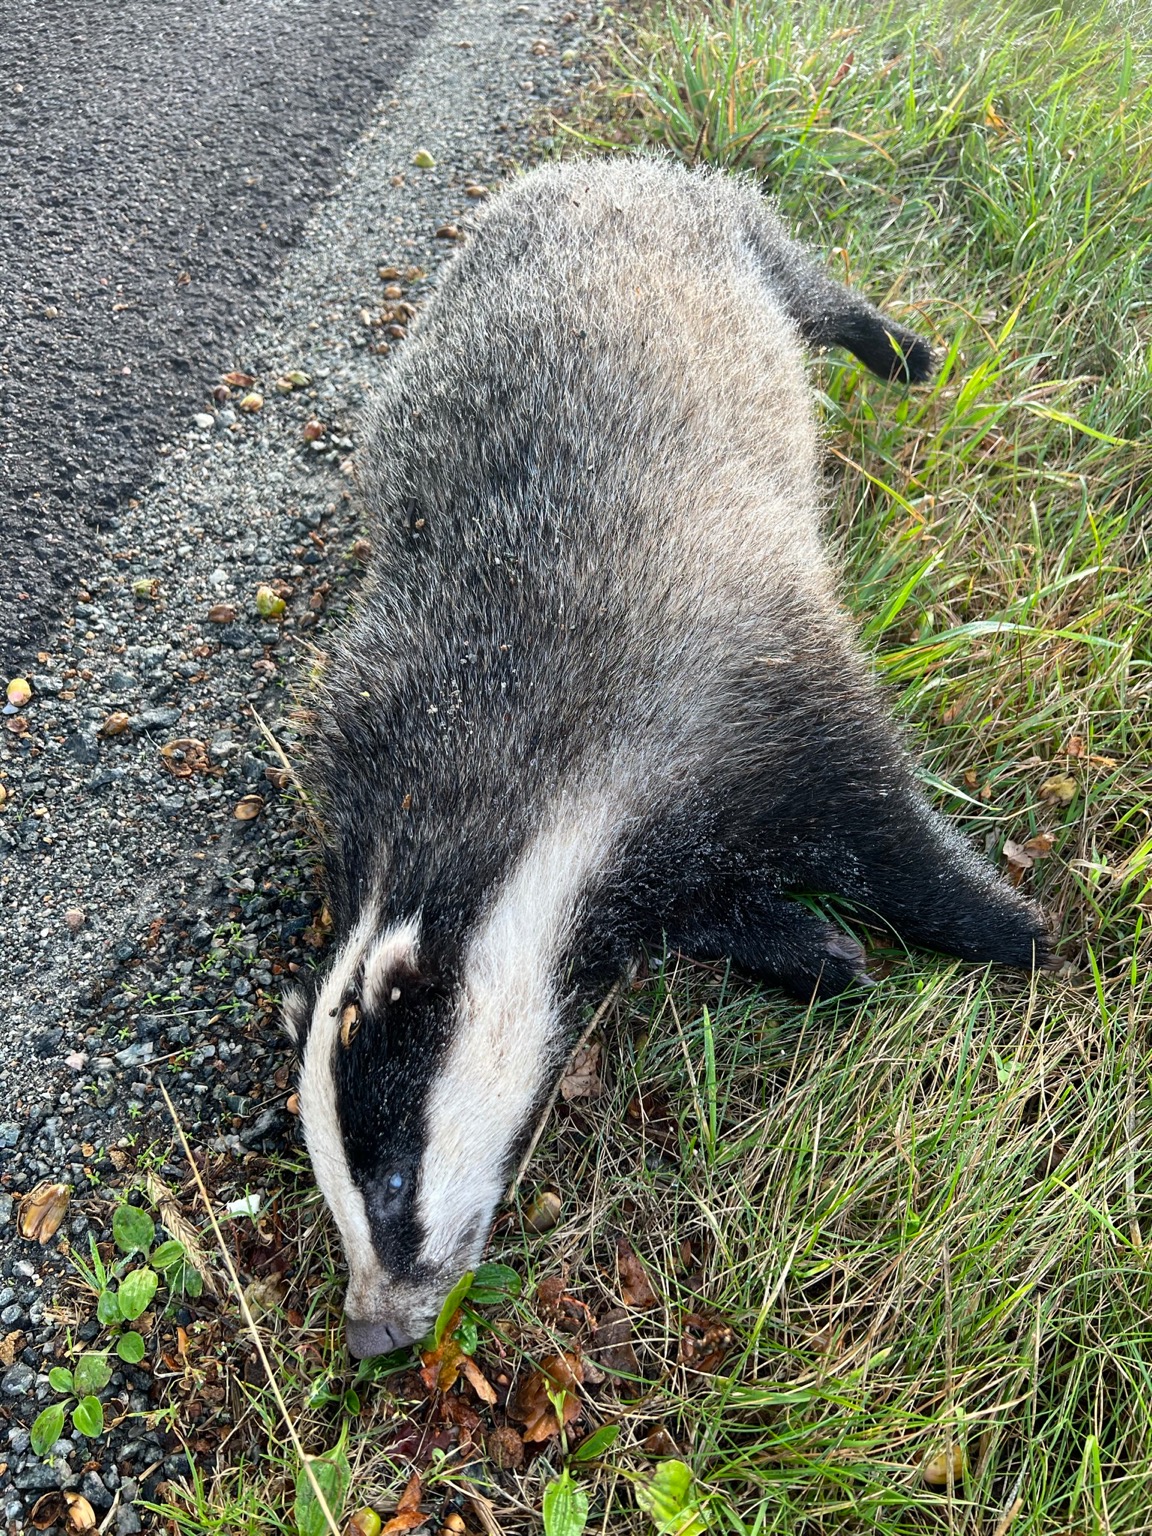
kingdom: Animalia
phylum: Chordata
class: Mammalia
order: Carnivora
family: Mustelidae
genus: Meles
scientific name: Meles meles
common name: Grævling
